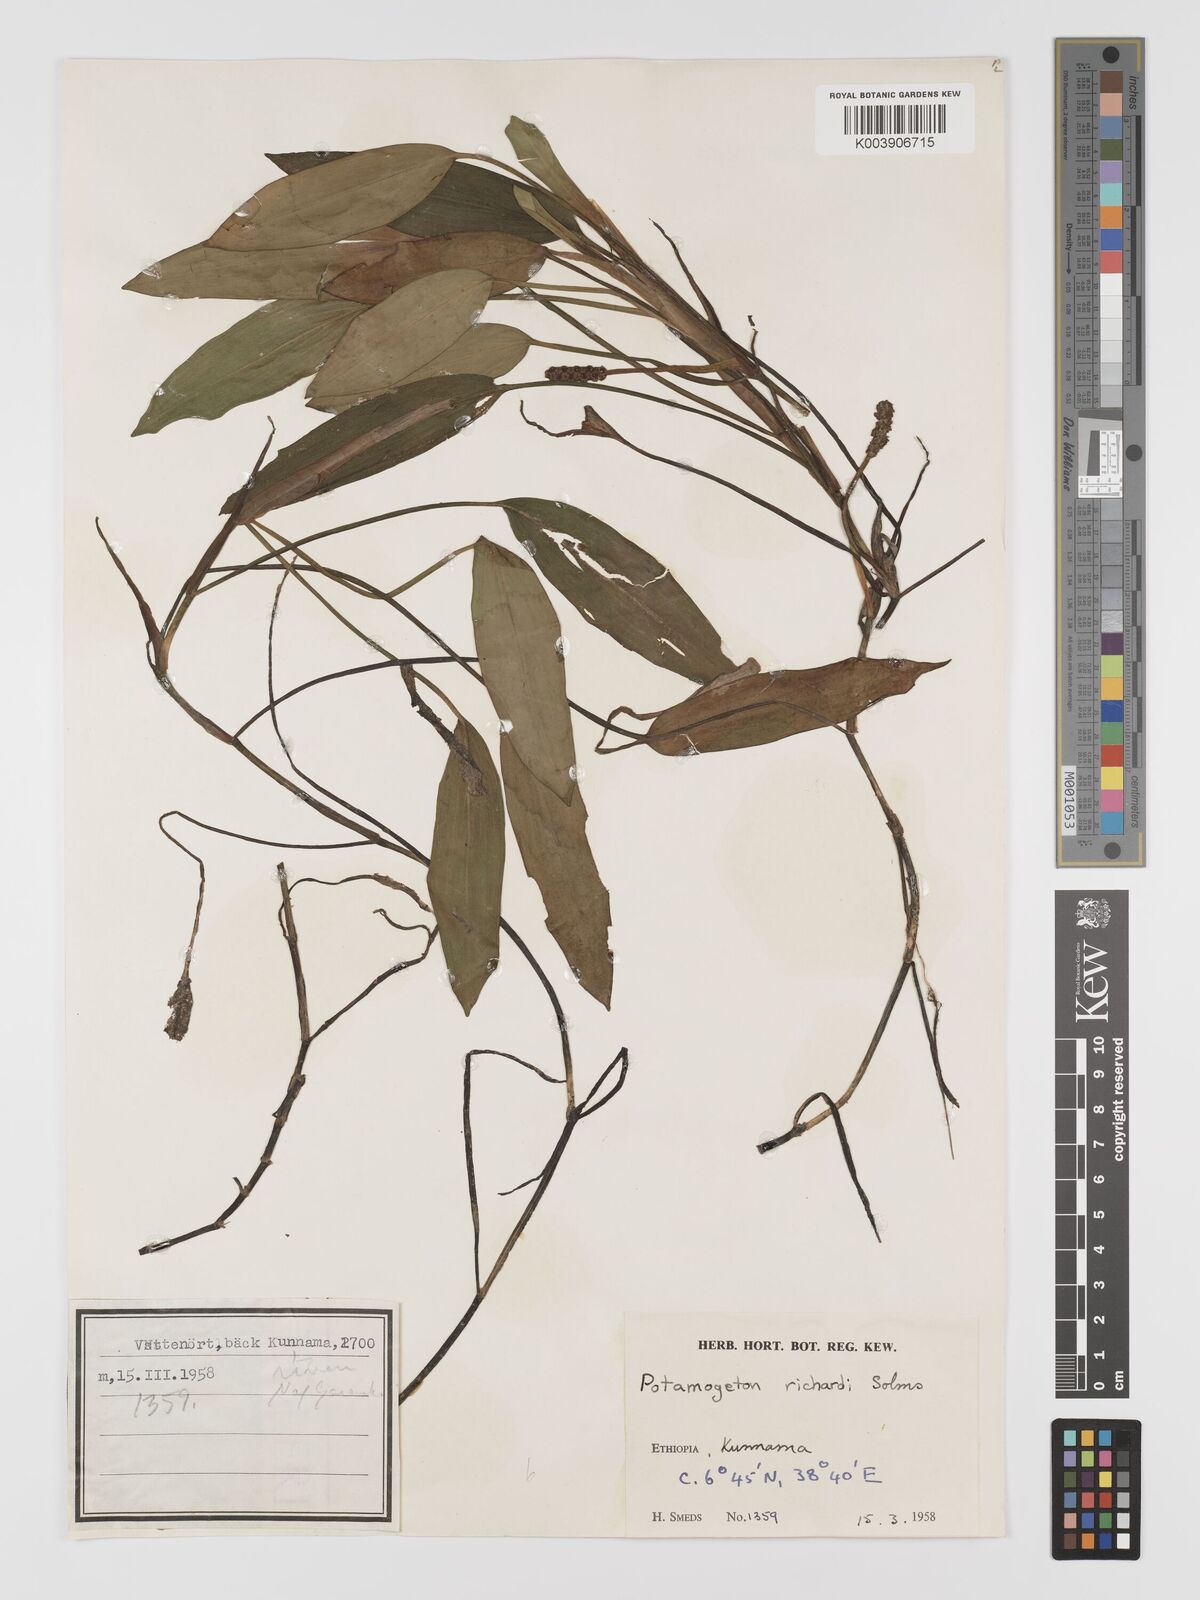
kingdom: Plantae
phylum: Tracheophyta
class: Liliopsida
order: Alismatales
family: Potamogetonaceae
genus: Potamogeton
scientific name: Potamogeton nodosus
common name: Loddon pondweed
